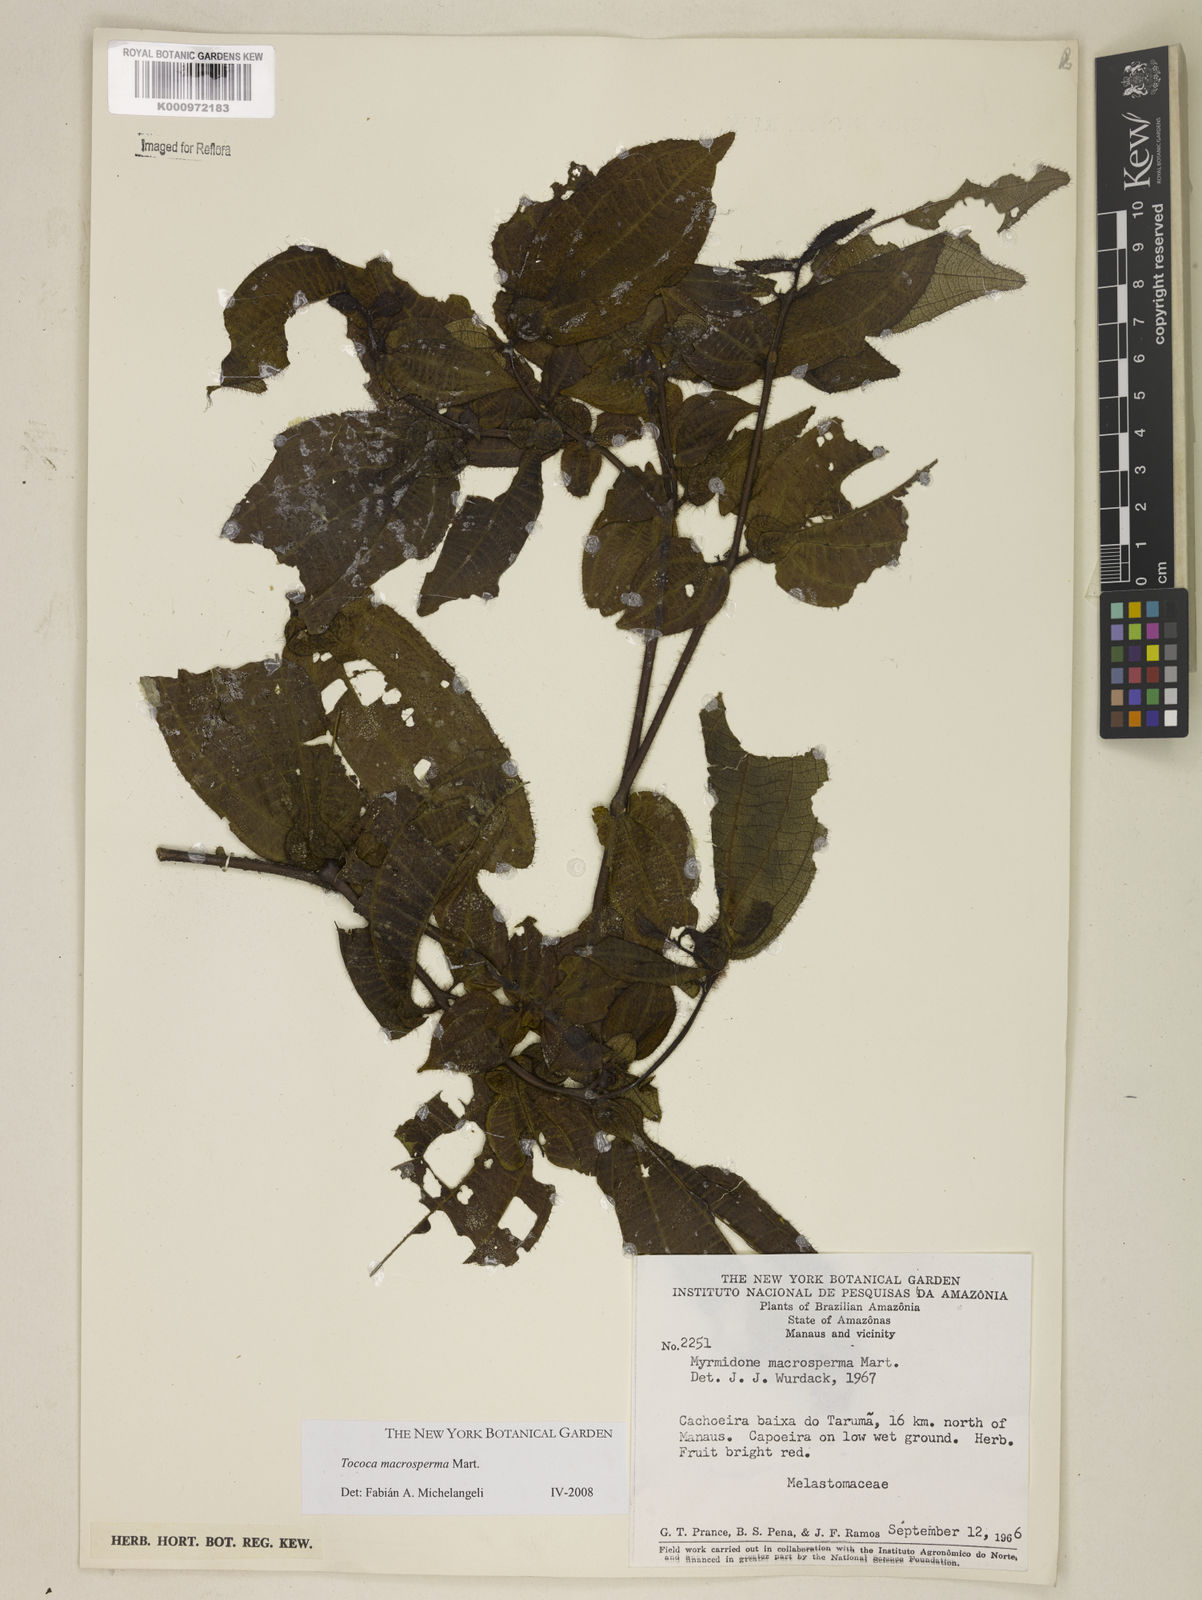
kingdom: Plantae
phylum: Tracheophyta
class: Magnoliopsida
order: Myrtales
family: Melastomataceae
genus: Miconia
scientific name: Miconia macrosperma
